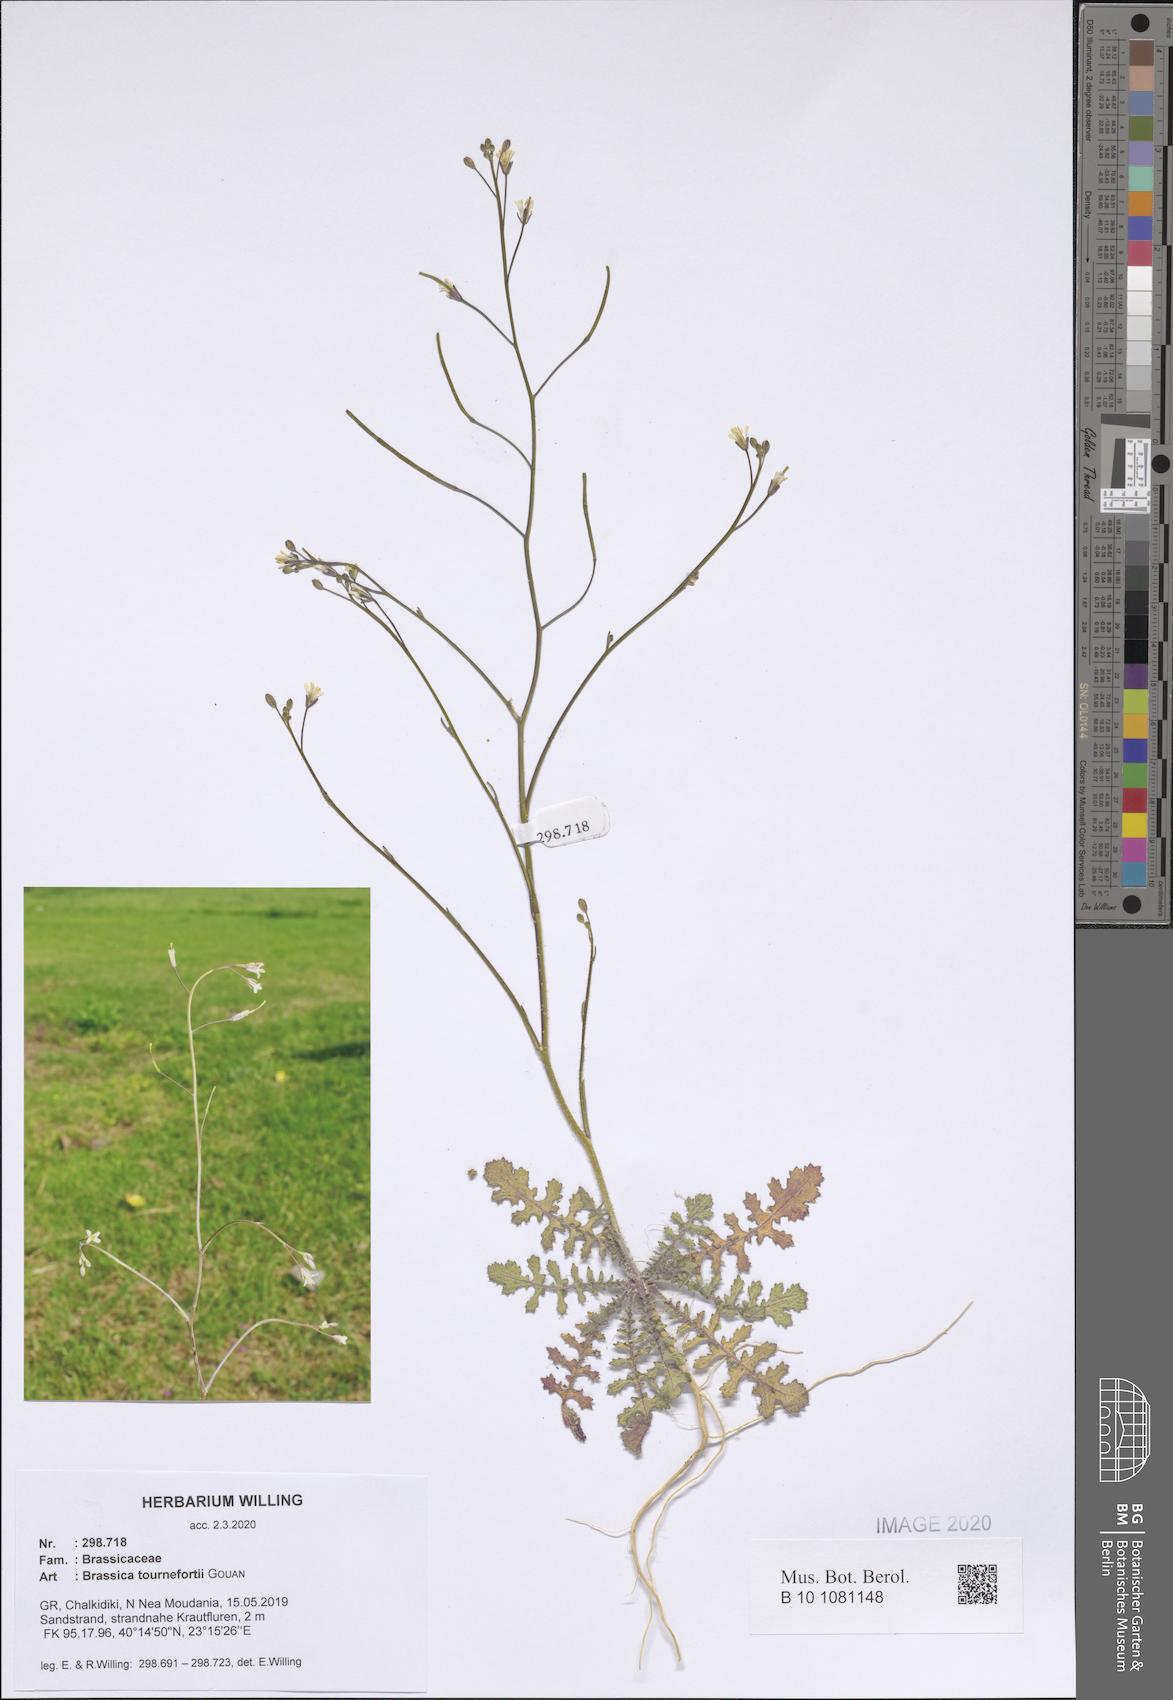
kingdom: Plantae
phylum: Tracheophyta
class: Magnoliopsida
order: Brassicales
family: Brassicaceae
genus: Brassica
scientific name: Brassica tournefortii
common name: Pale cabbage
